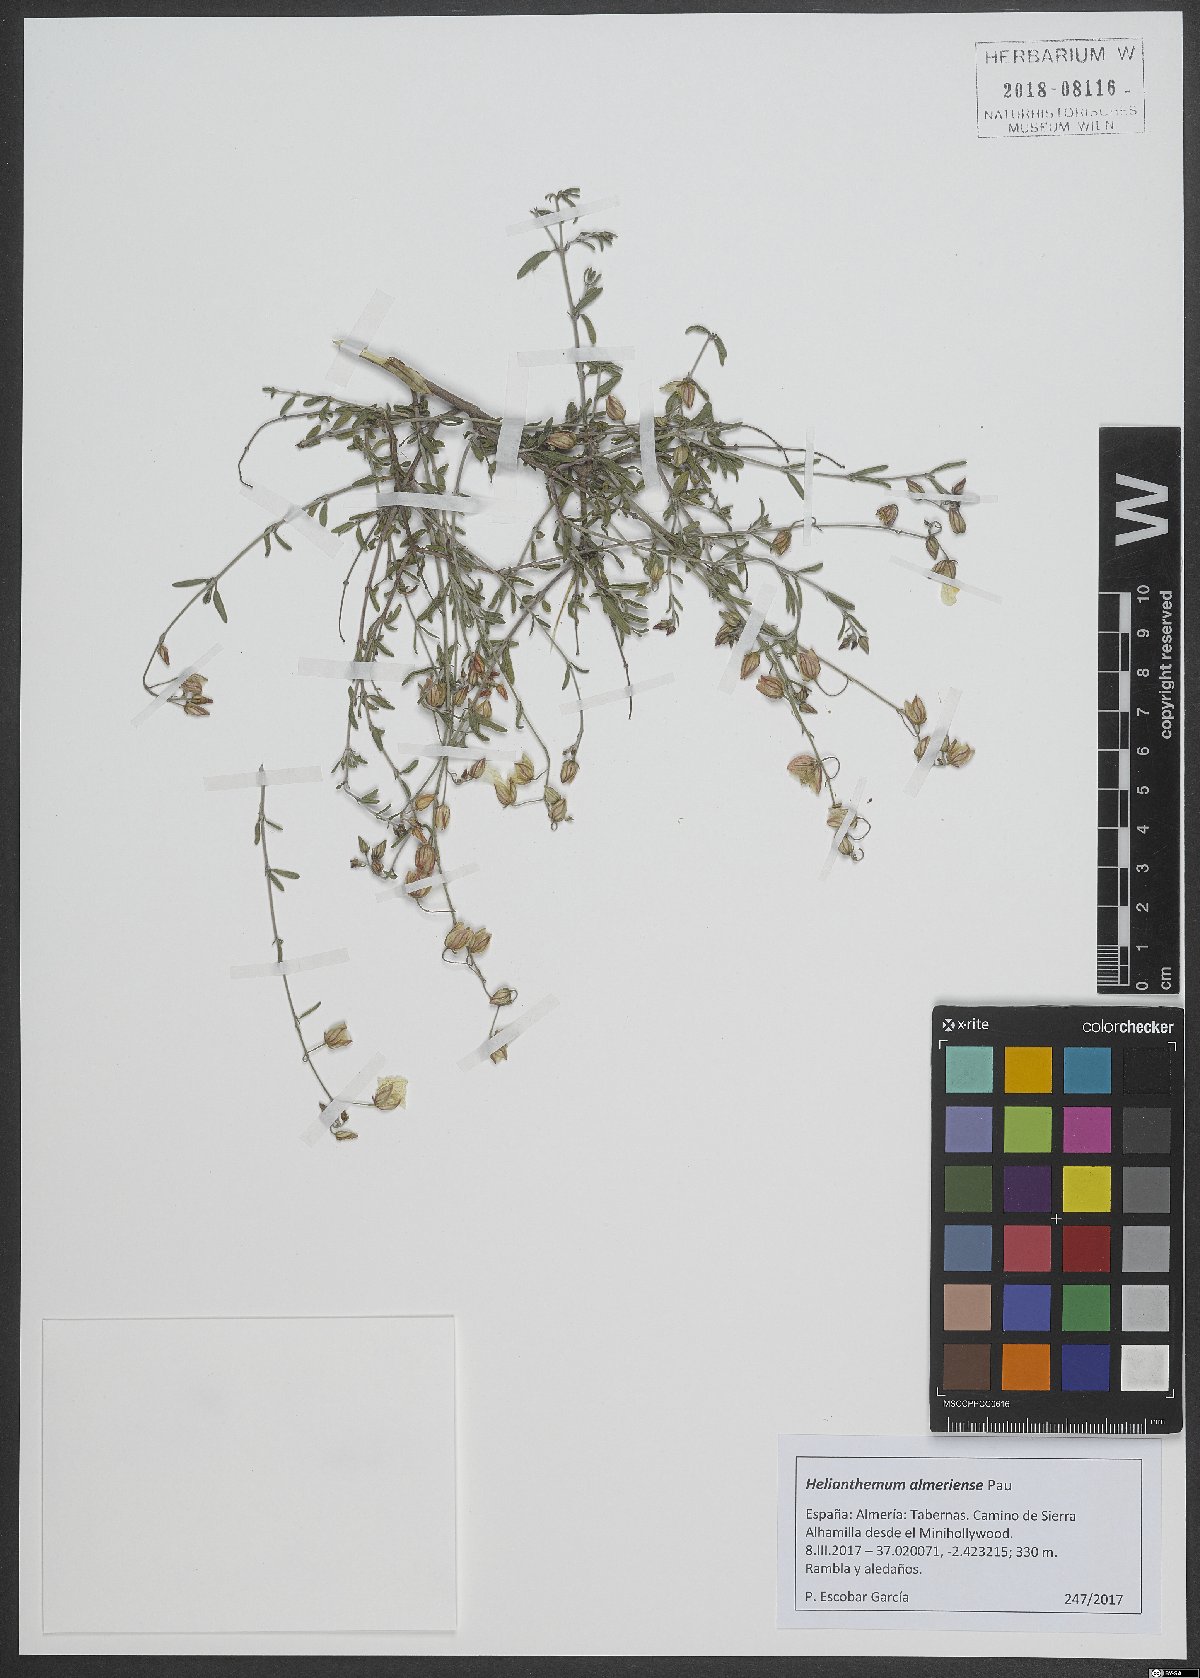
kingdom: Plantae
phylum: Tracheophyta
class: Magnoliopsida
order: Malvales
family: Cistaceae
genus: Helianthemum
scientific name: Helianthemum almeriense
